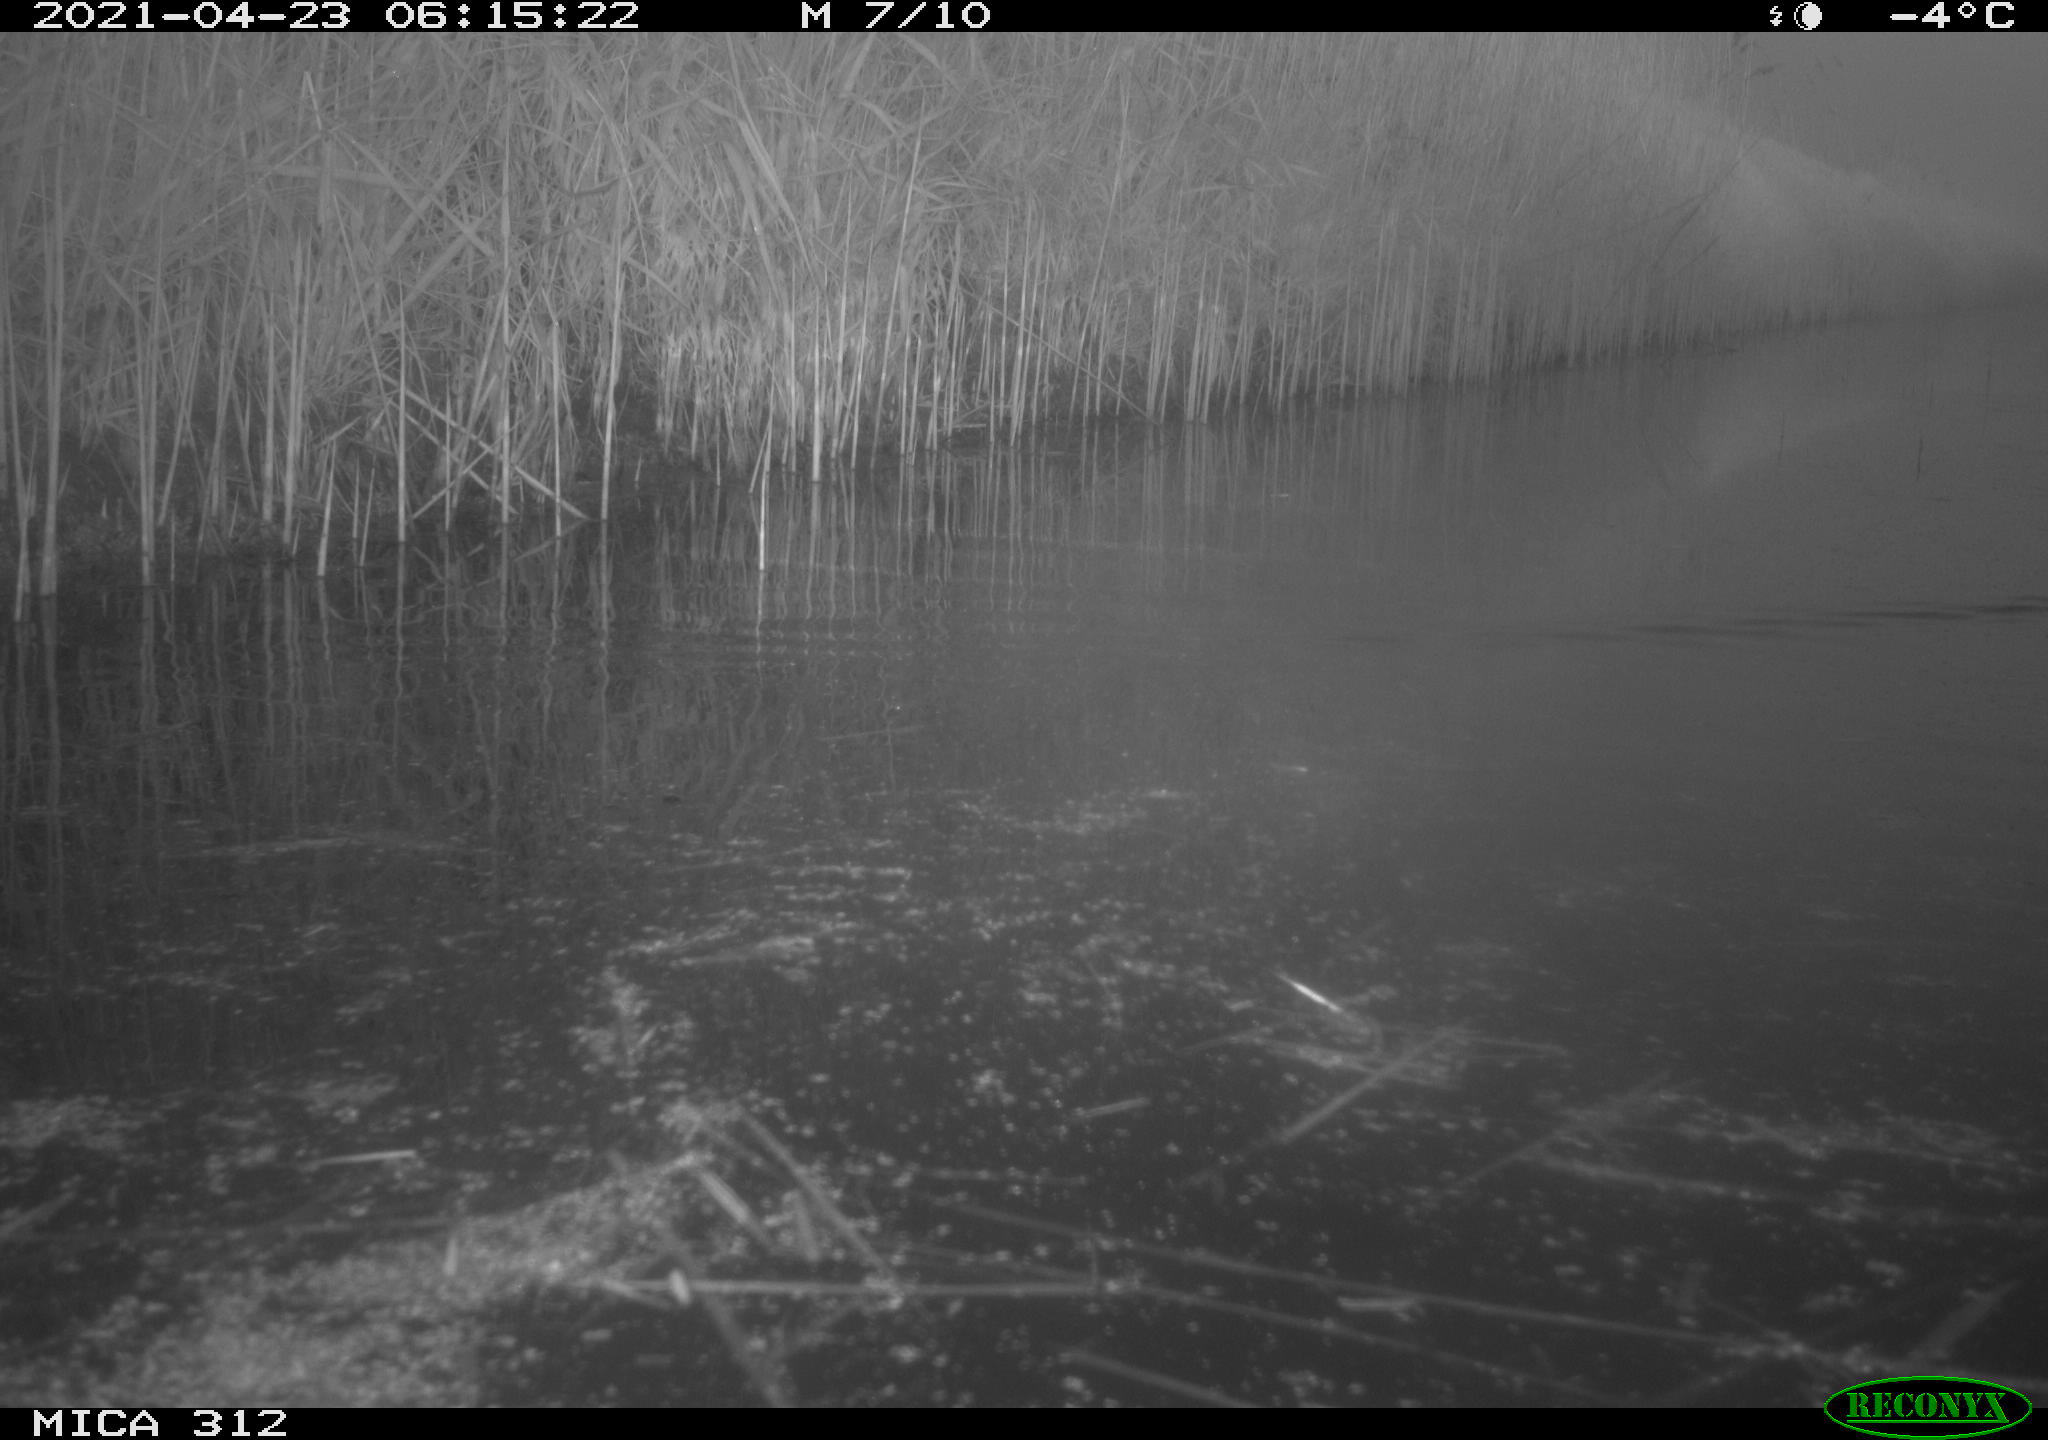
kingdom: Animalia
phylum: Chordata
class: Mammalia
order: Rodentia
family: Cricetidae
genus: Ondatra
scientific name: Ondatra zibethicus
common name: Muskrat
